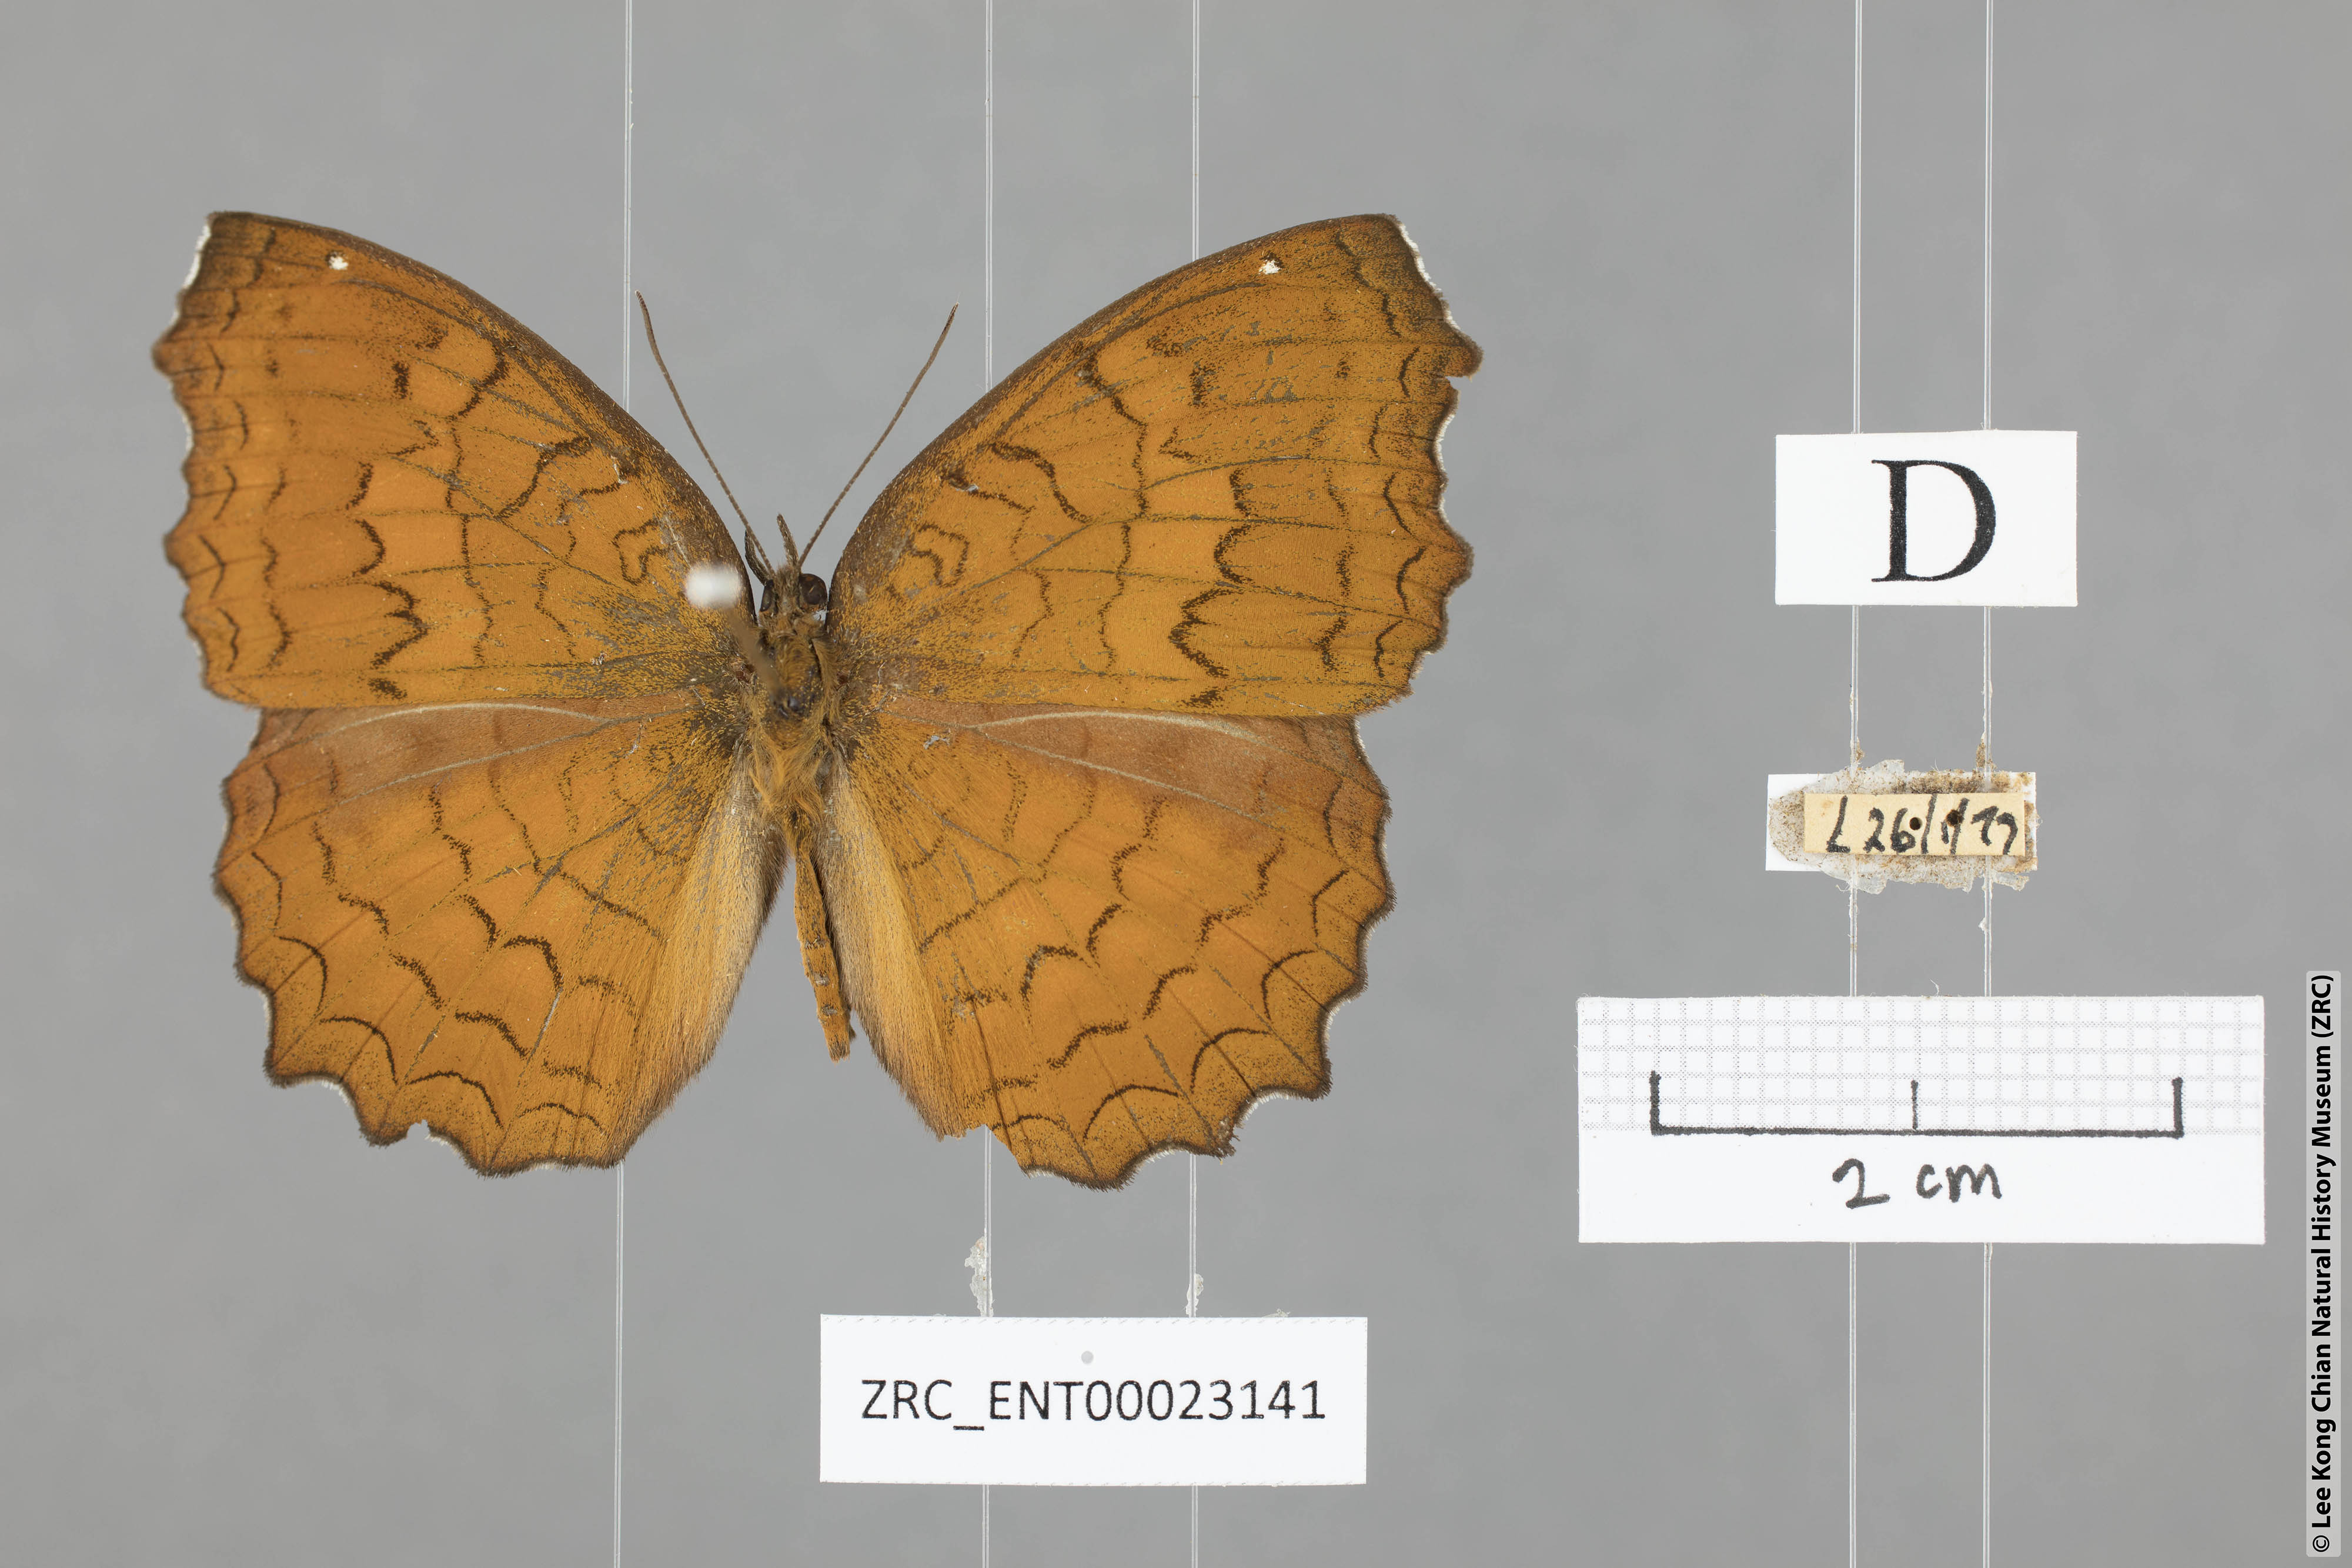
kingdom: Animalia
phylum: Arthropoda
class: Insecta
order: Lepidoptera
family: Nymphalidae
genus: Ariadne
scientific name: Ariadne ariadne
